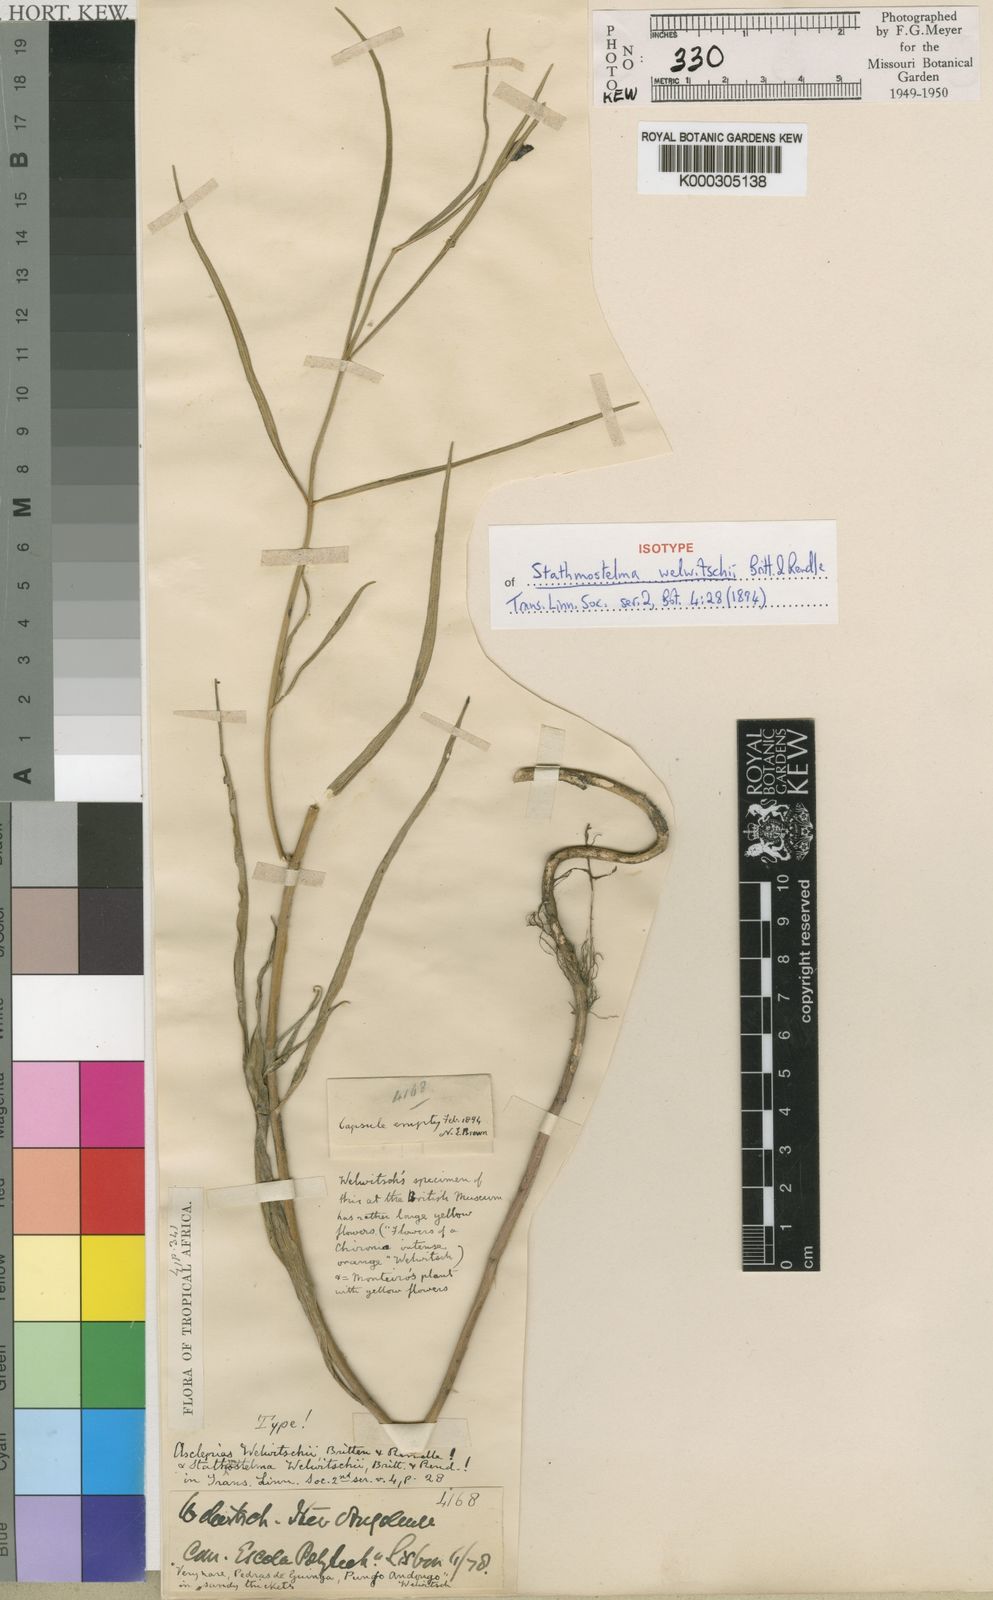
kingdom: Plantae
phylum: Tracheophyta
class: Magnoliopsida
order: Gentianales
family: Apocynaceae
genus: Stathmostelma
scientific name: Stathmostelma welwitschii
